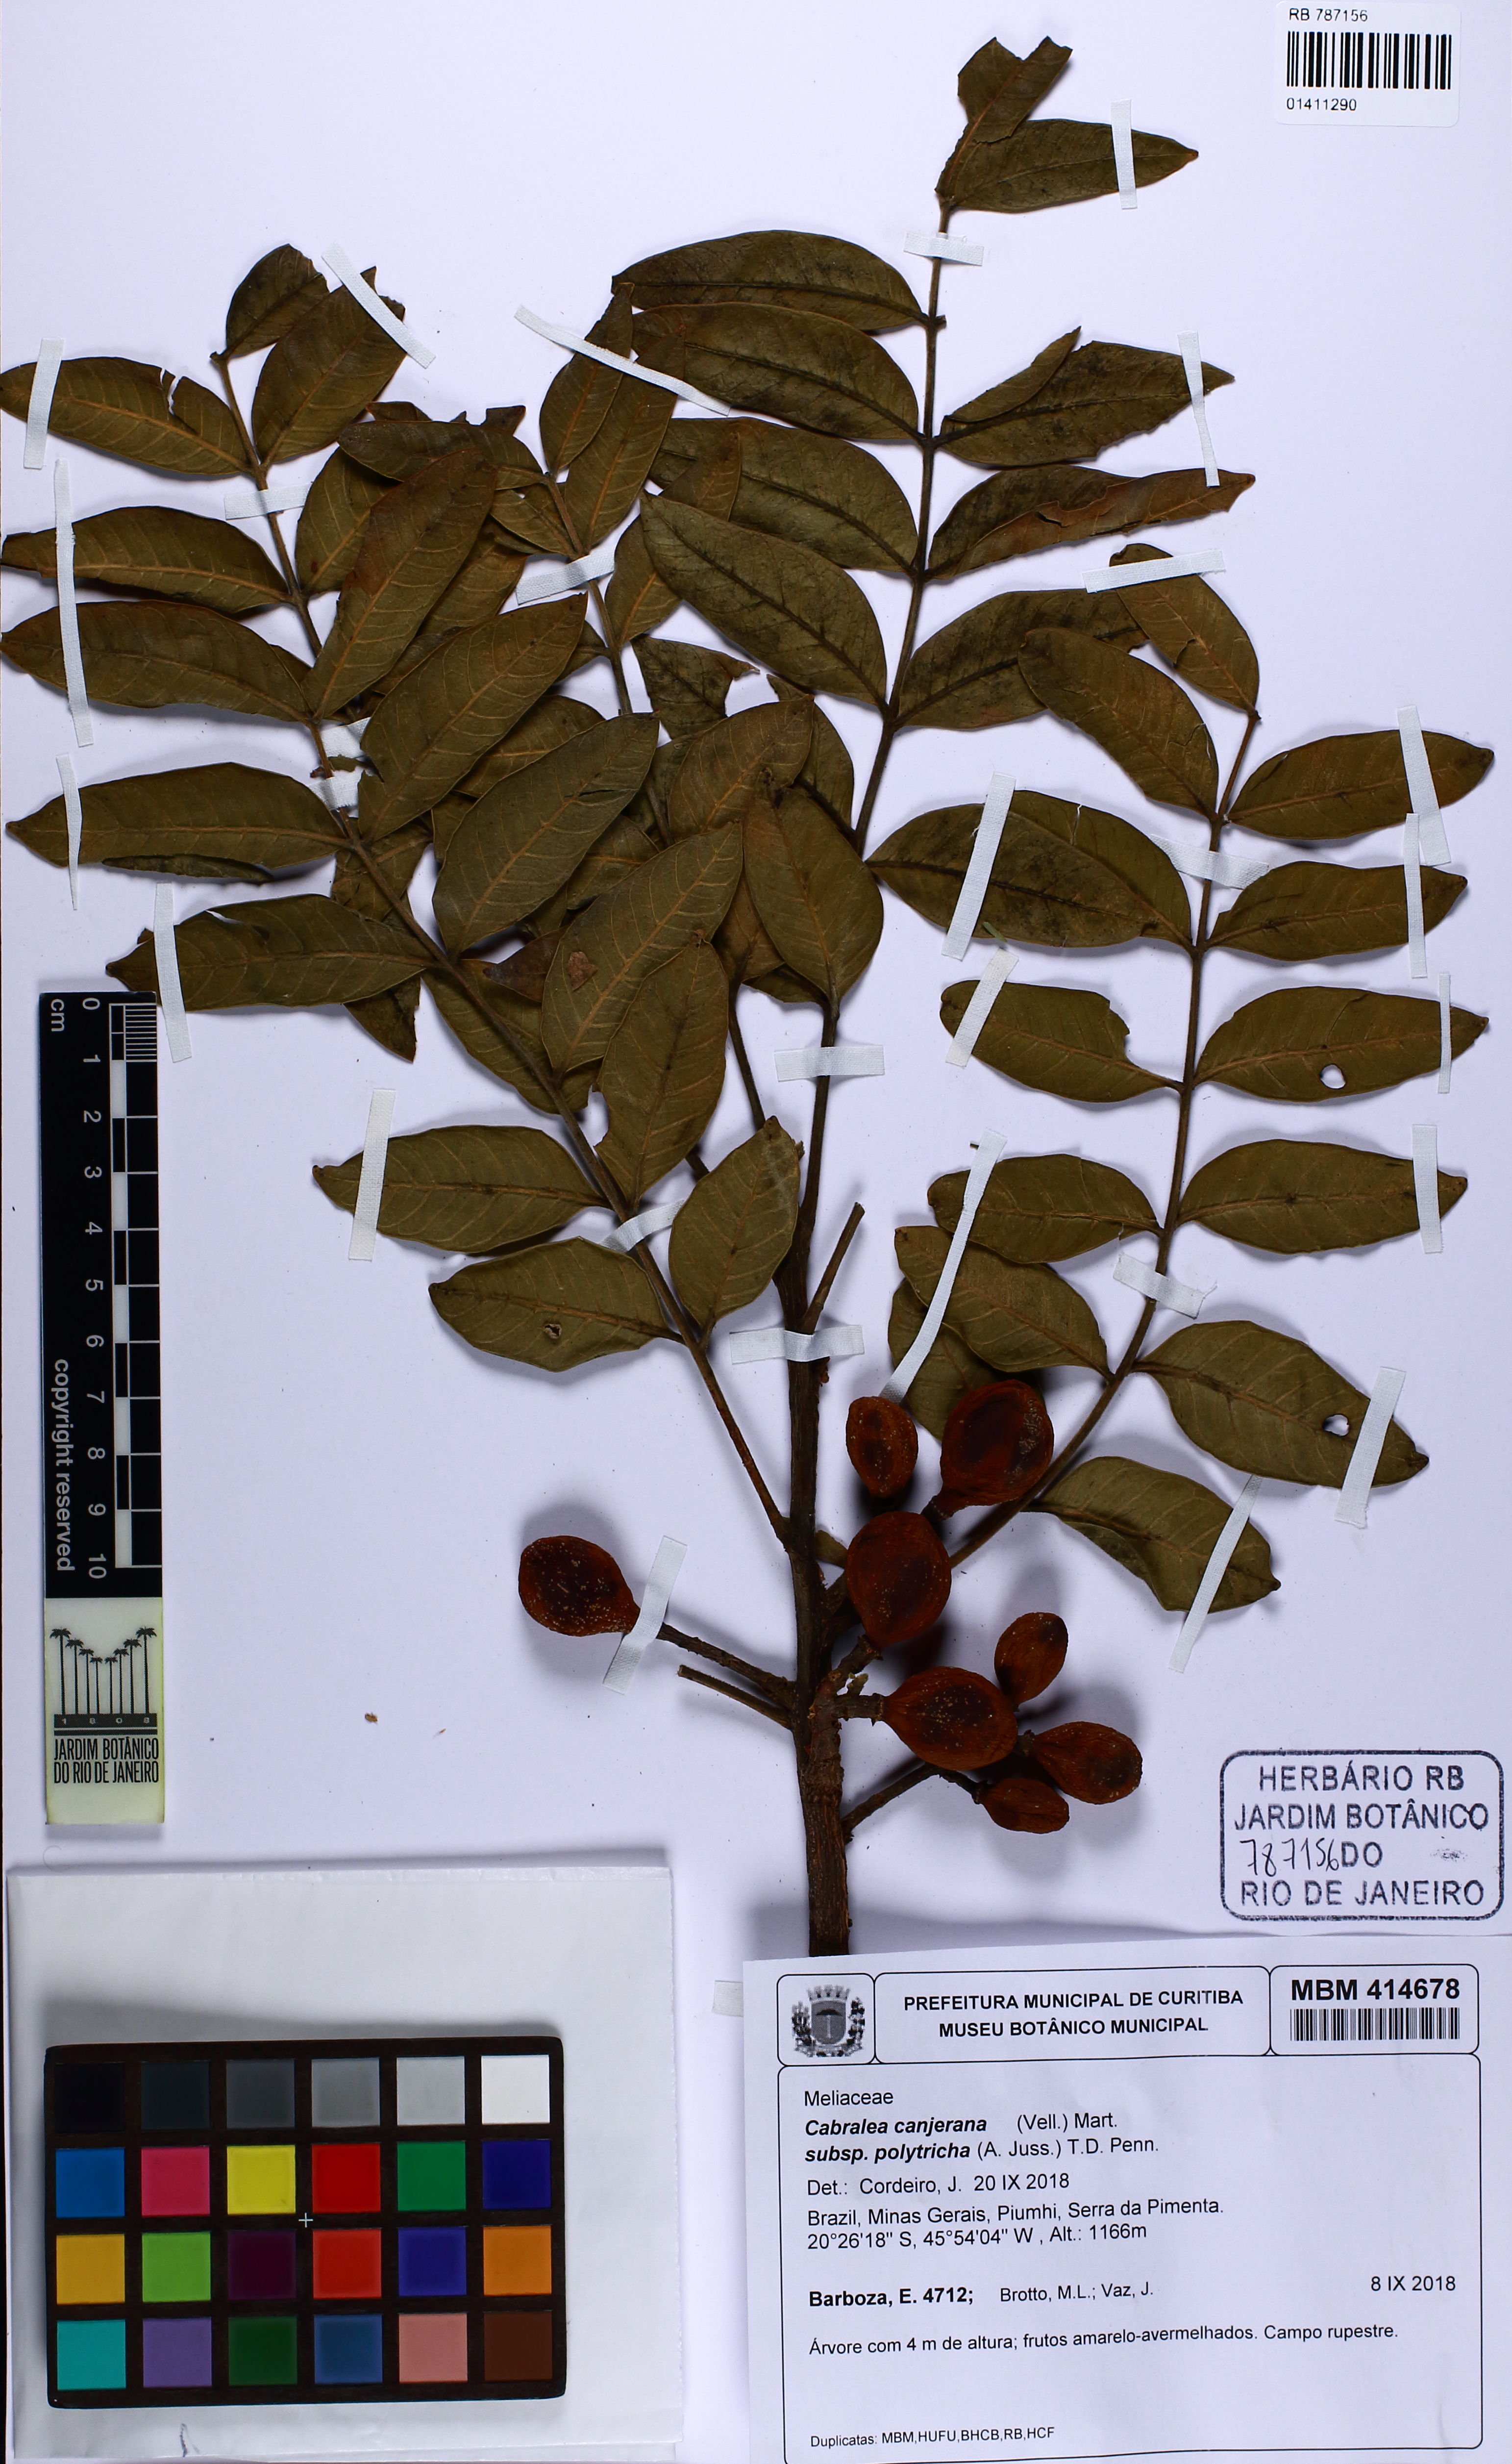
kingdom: Plantae
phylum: Tracheophyta
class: Magnoliopsida
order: Sapindales
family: Meliaceae
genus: Cabralea
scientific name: Cabralea canjerana
